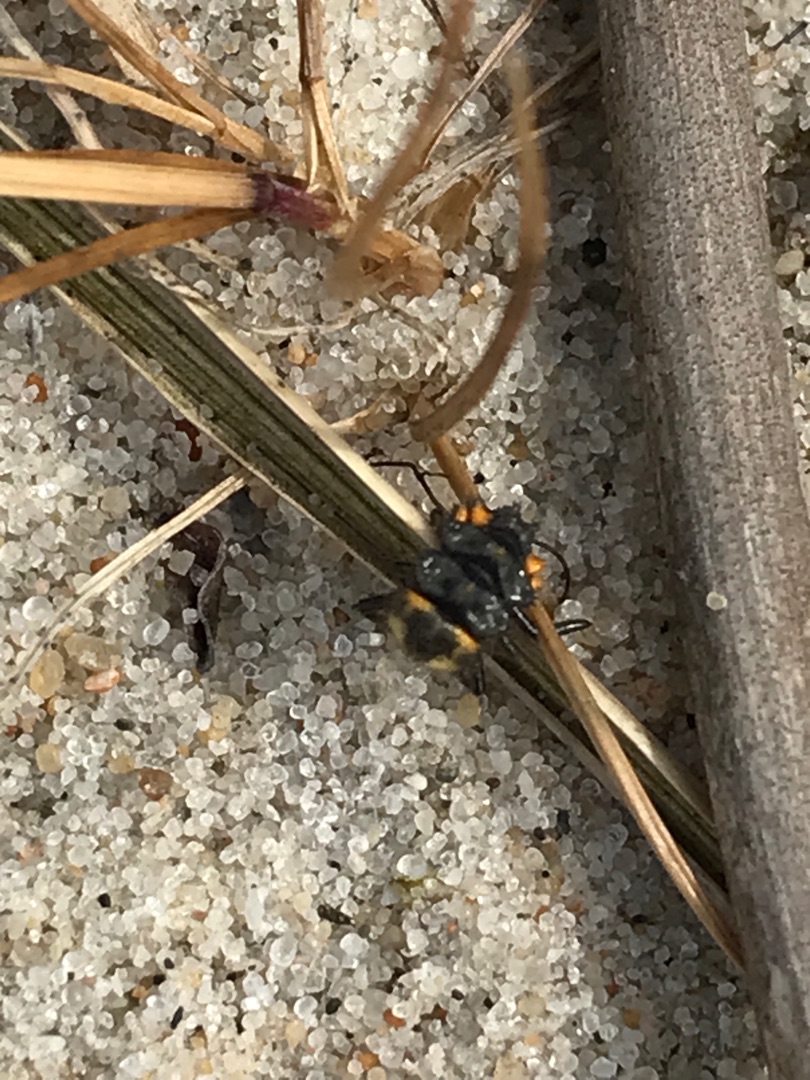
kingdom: Animalia
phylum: Arthropoda
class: Insecta
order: Coleoptera
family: Coccinellidae
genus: Coccinella
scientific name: Coccinella septempunctata
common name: Syvplettet mariehøne
